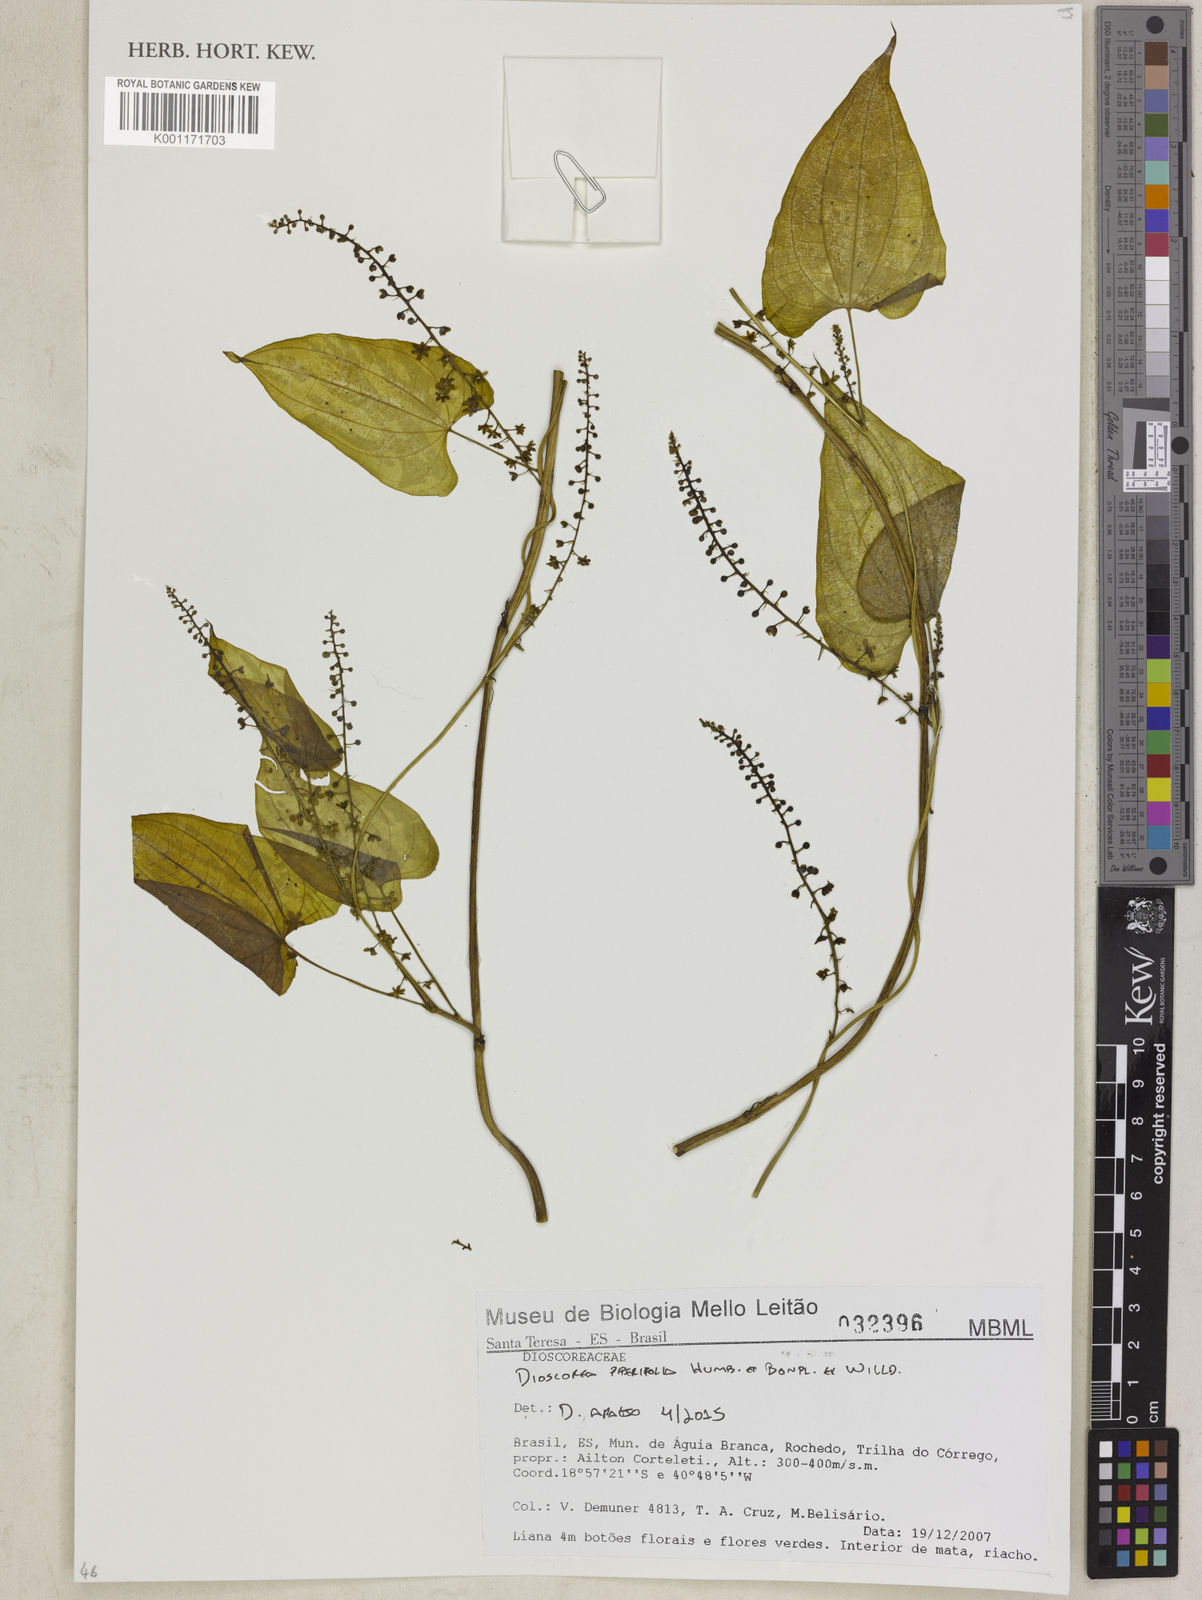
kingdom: Plantae
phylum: Tracheophyta
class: Liliopsida
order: Dioscoreales
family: Dioscoreaceae
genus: Dioscorea
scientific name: Dioscorea piperifolia
